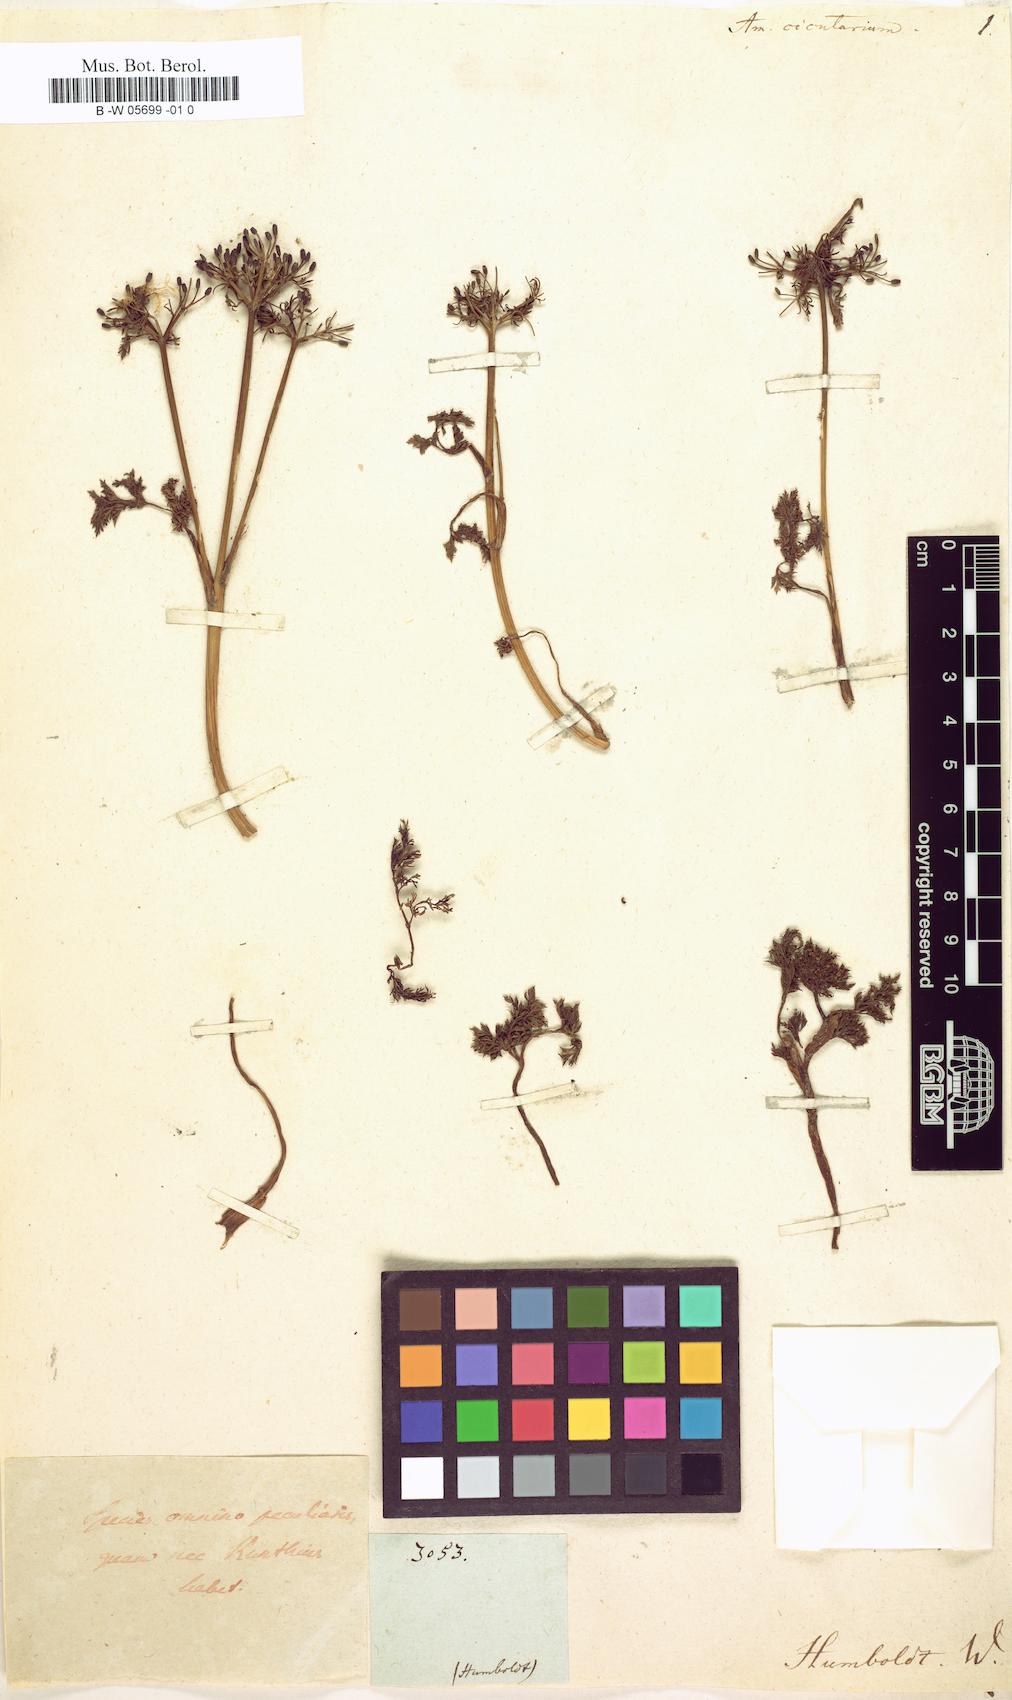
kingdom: Plantae
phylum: Tracheophyta
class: Magnoliopsida
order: Apiales
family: Apiaceae
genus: Trachyspermum
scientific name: Trachyspermum ammi
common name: Ajowan
